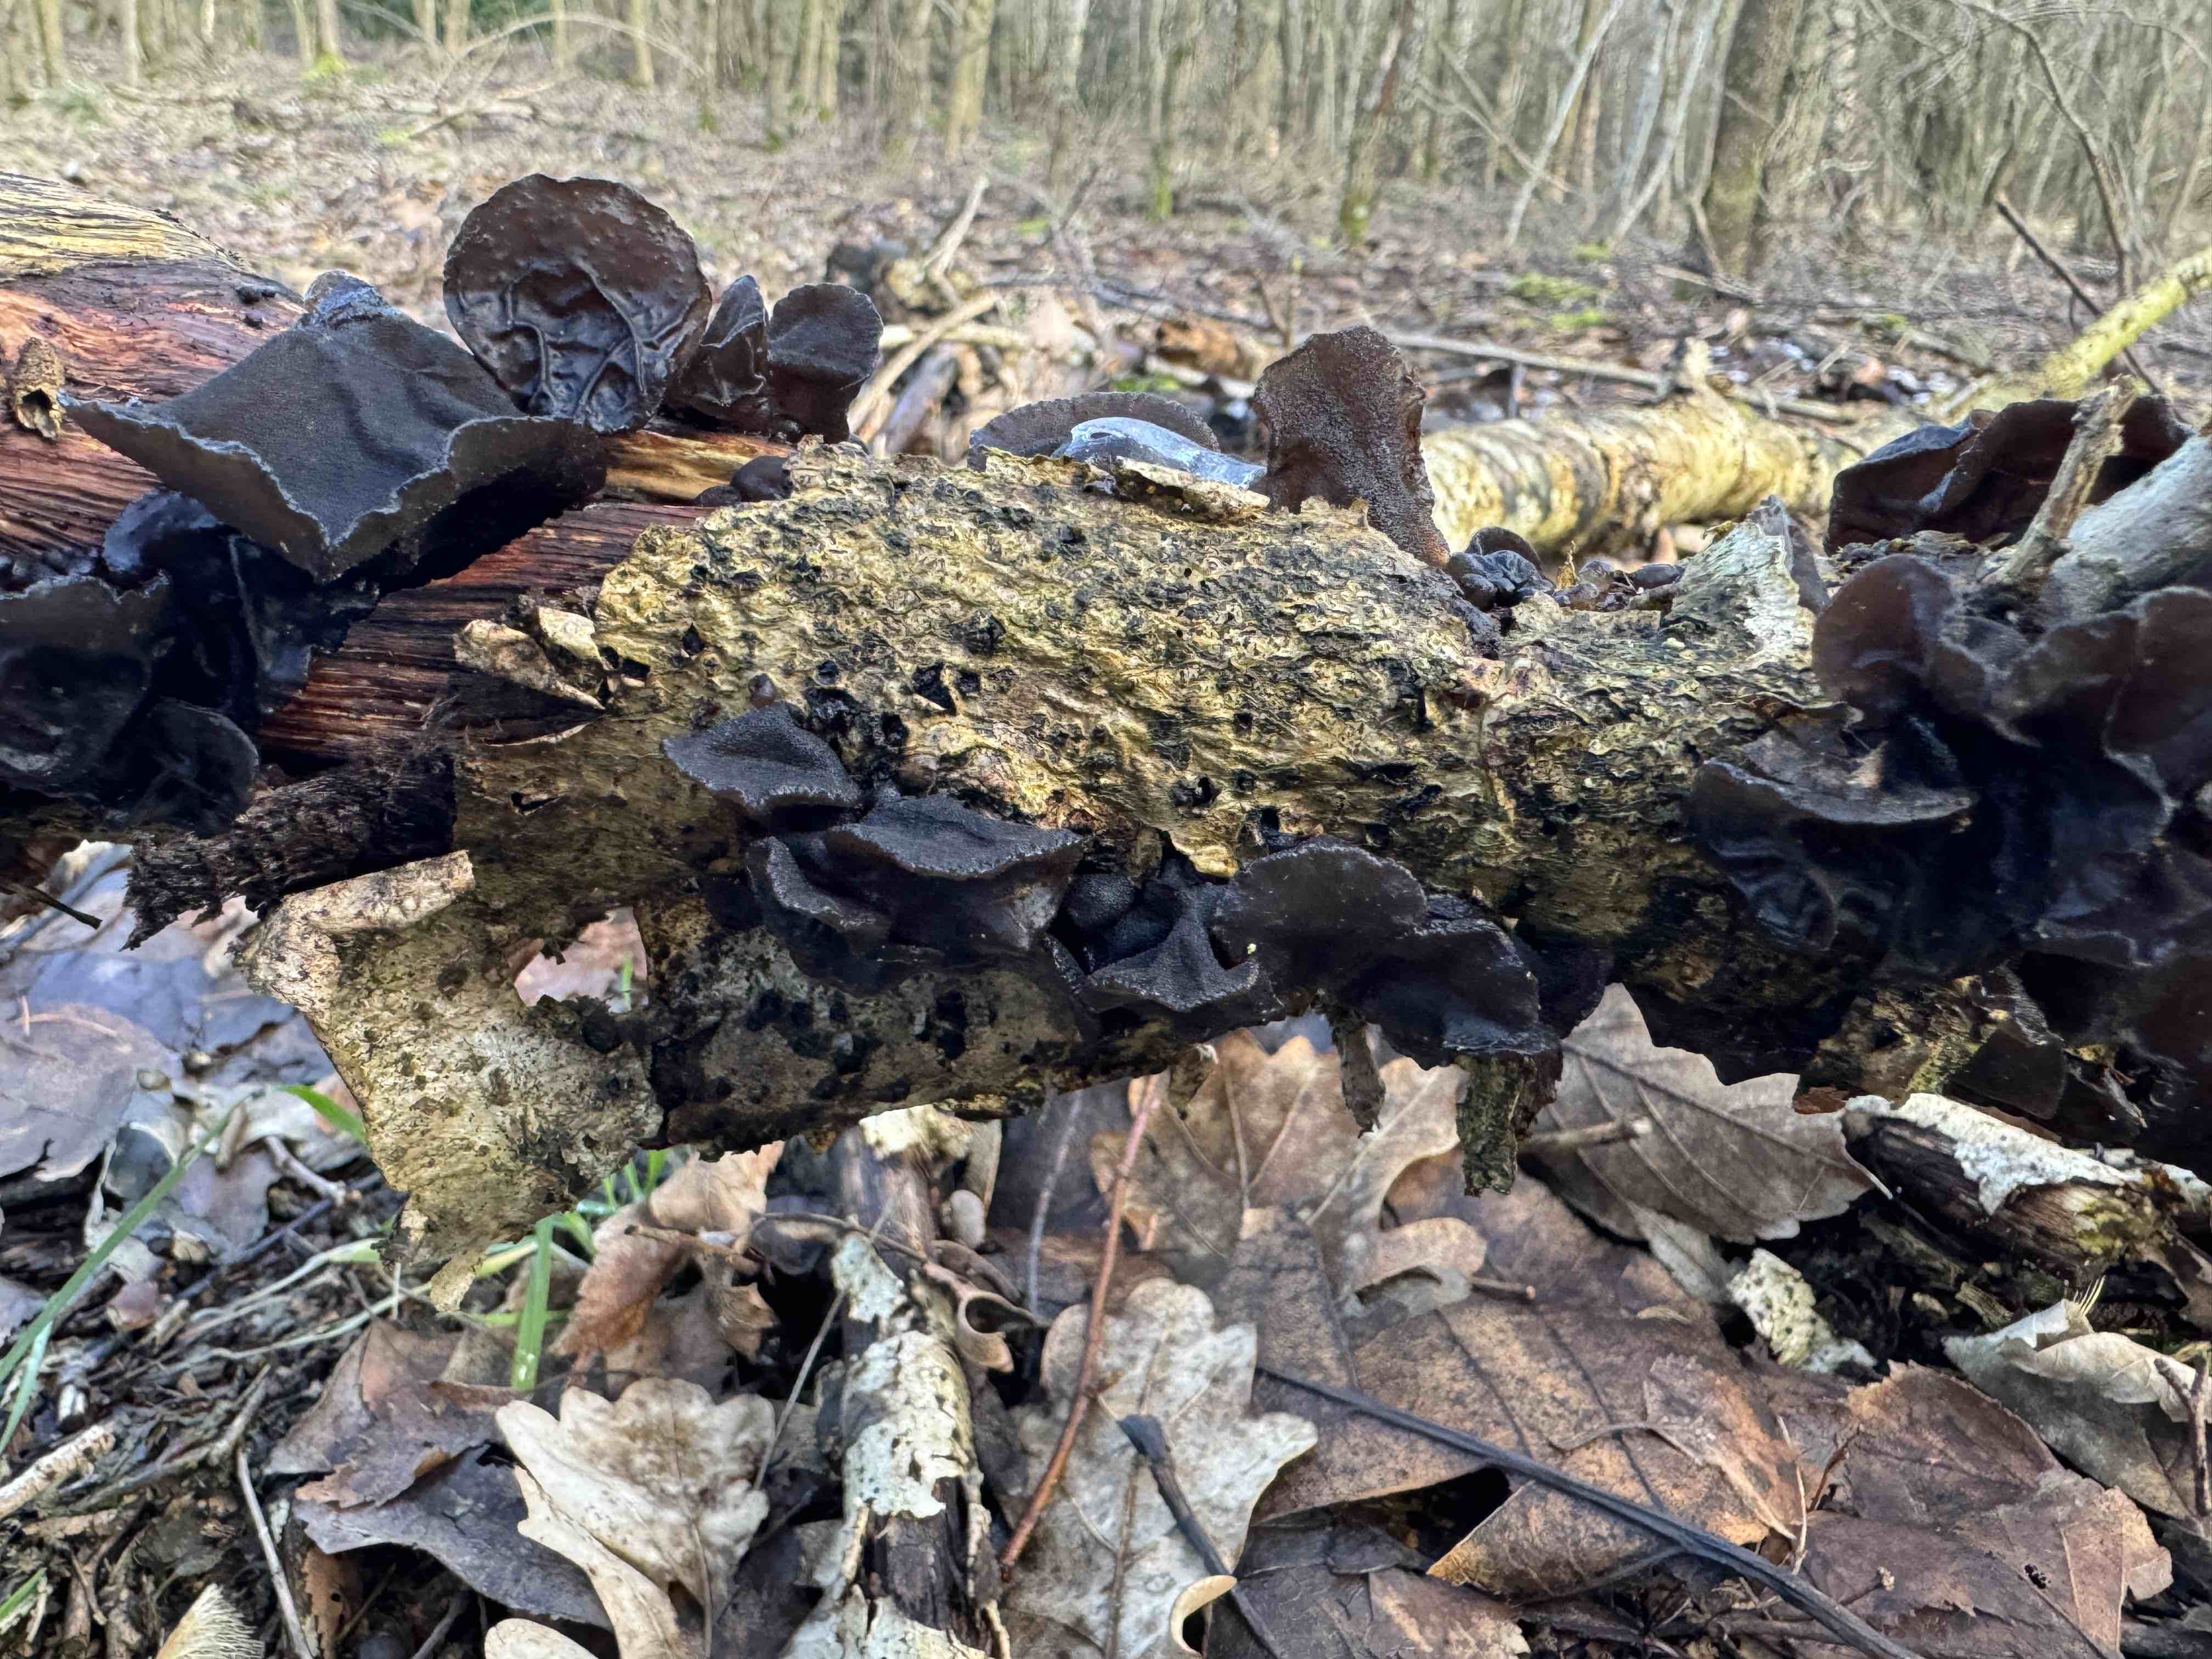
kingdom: Fungi
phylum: Basidiomycota
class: Agaricomycetes
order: Auriculariales
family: Auriculariaceae
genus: Exidia
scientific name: Exidia glandulosa
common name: ege-bævretop
